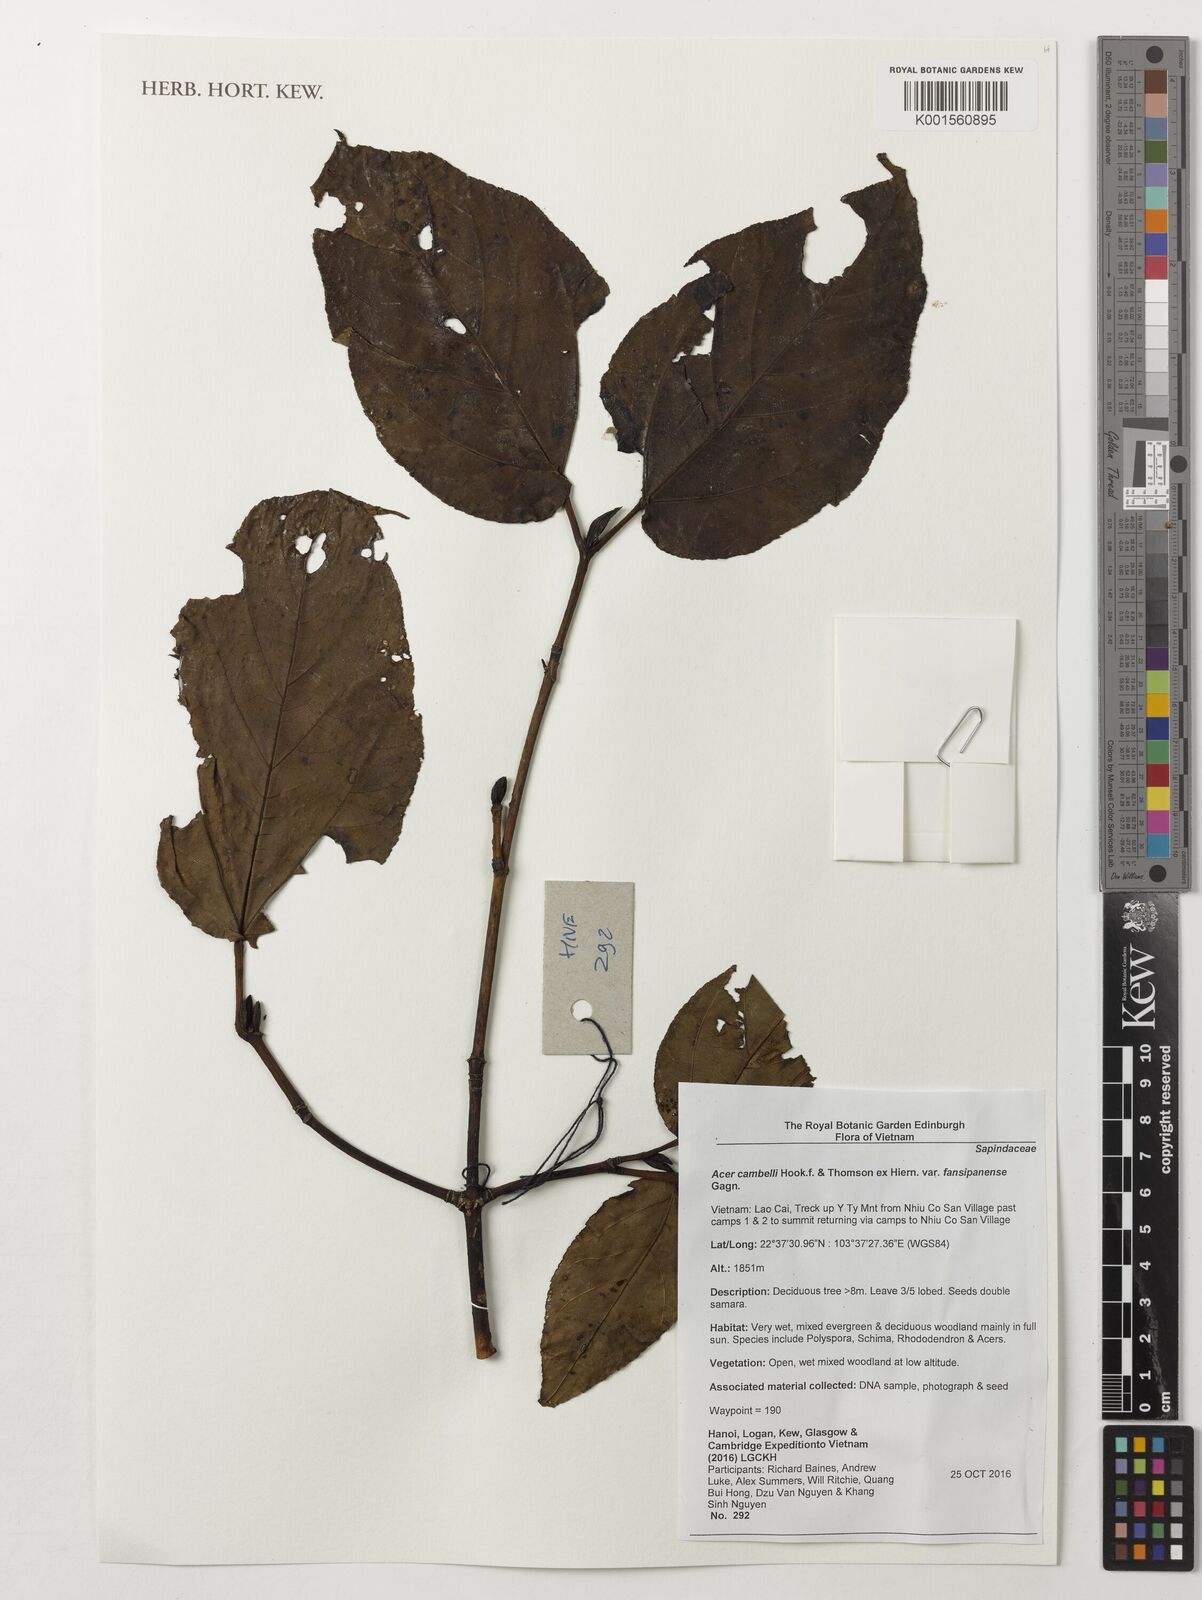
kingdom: Plantae
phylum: Tracheophyta
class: Magnoliopsida
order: Sapindales
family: Sapindaceae
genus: Acer
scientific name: Acer campbellii
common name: Campbell's maple
